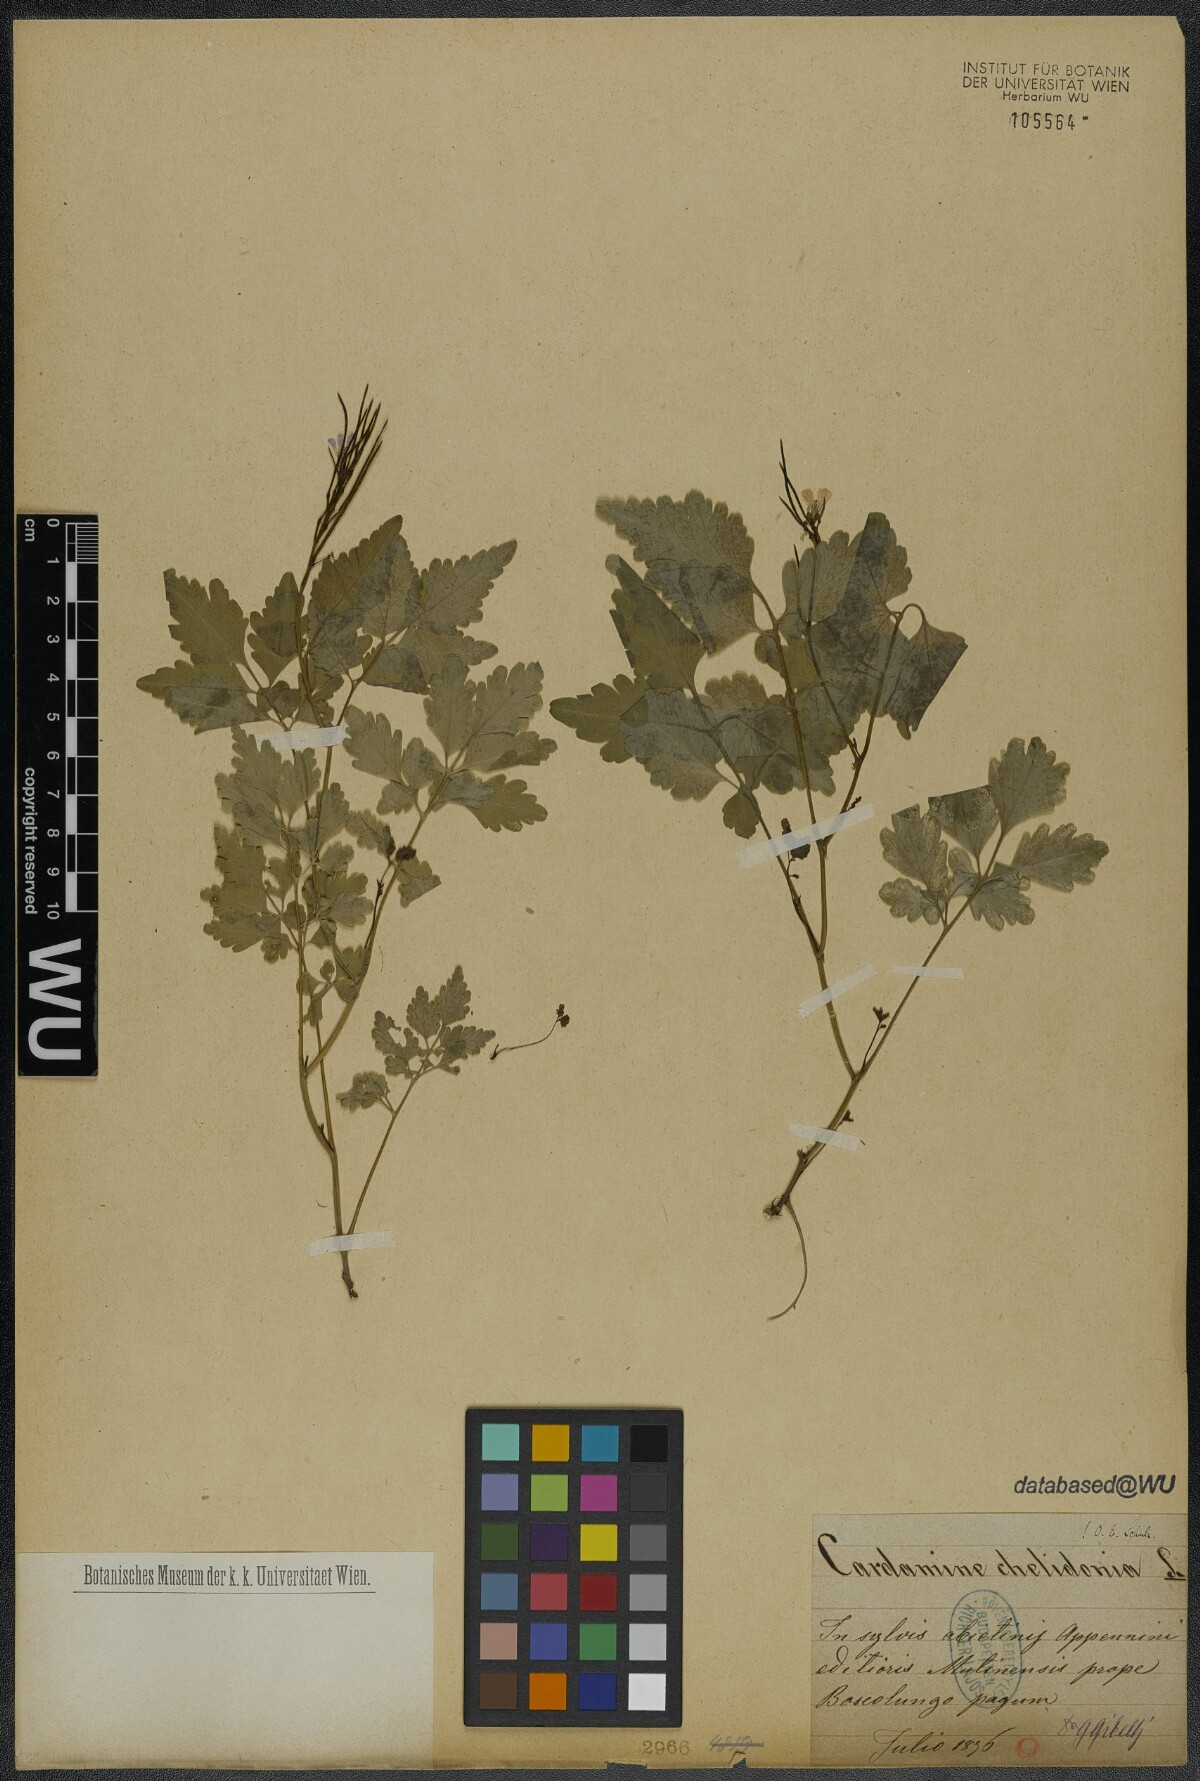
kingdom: Plantae
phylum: Tracheophyta
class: Magnoliopsida
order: Brassicales
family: Brassicaceae
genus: Cardamine
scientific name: Cardamine chelidonia
